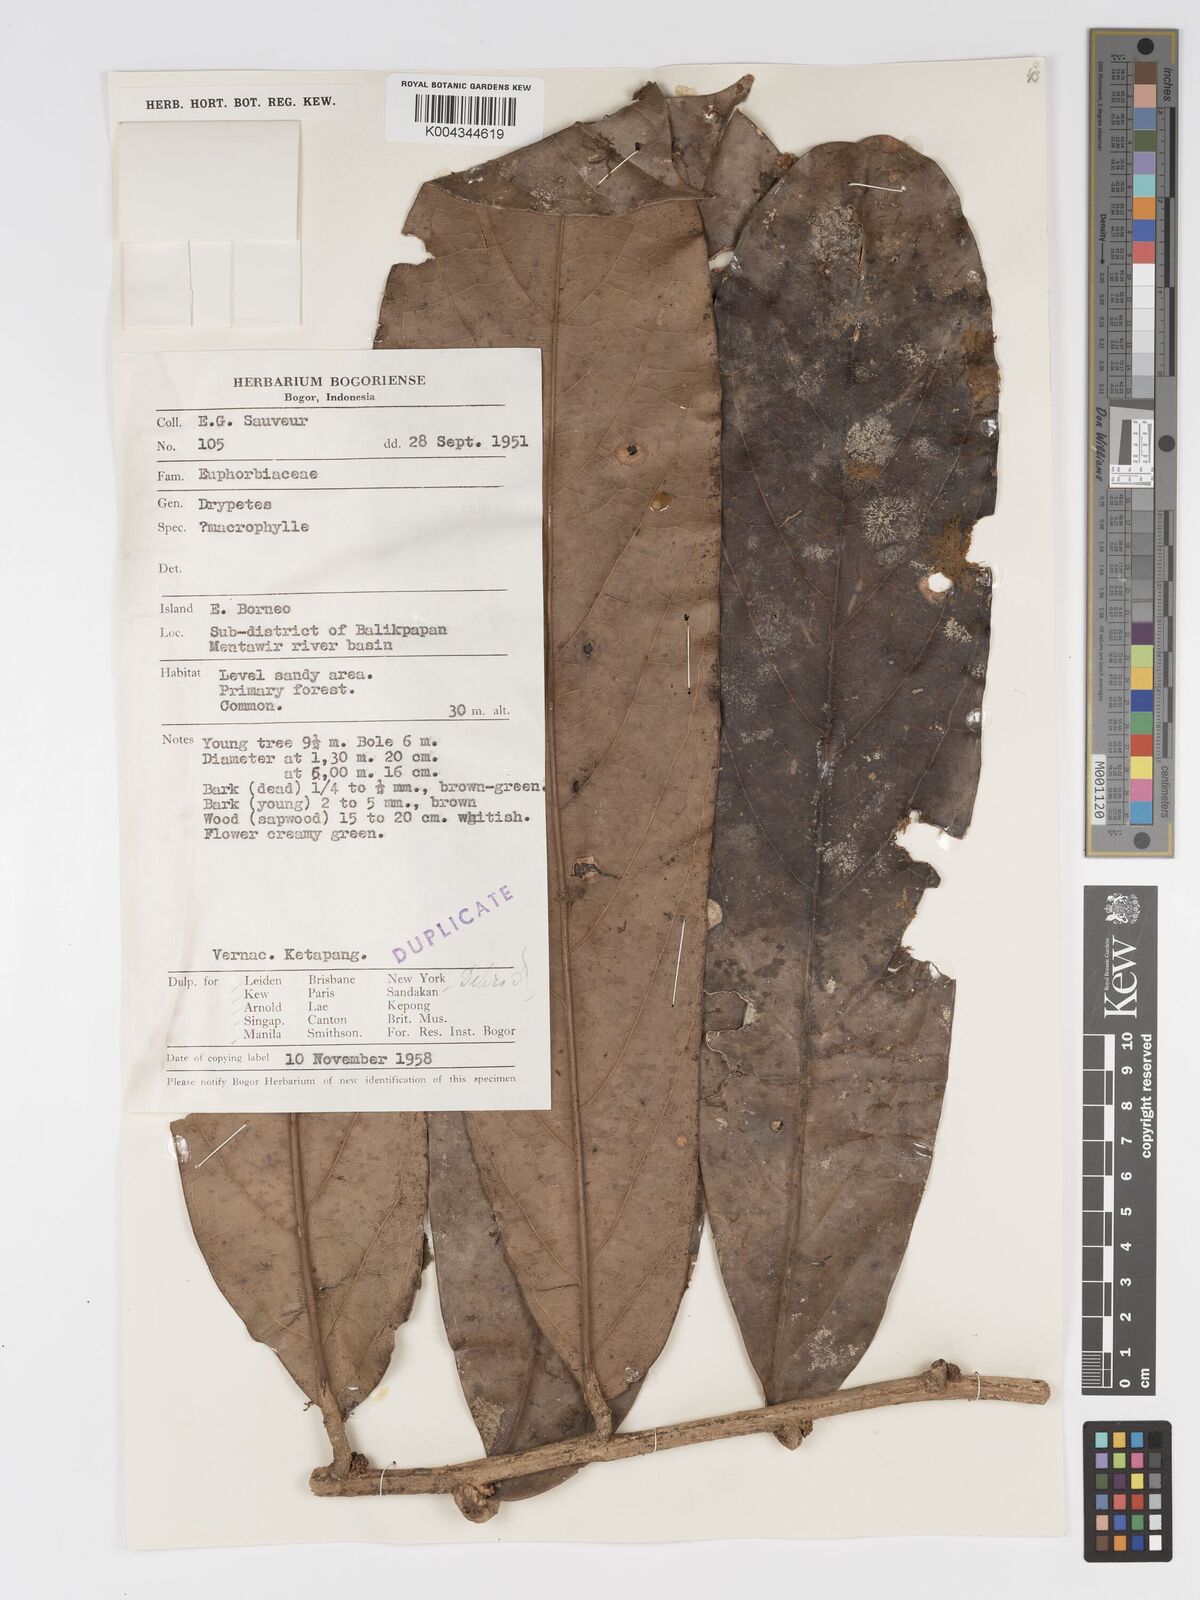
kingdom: Plantae
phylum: Tracheophyta
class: Magnoliopsida
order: Malpighiales
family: Putranjivaceae
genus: Drypetes
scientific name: Drypetes longifolia
